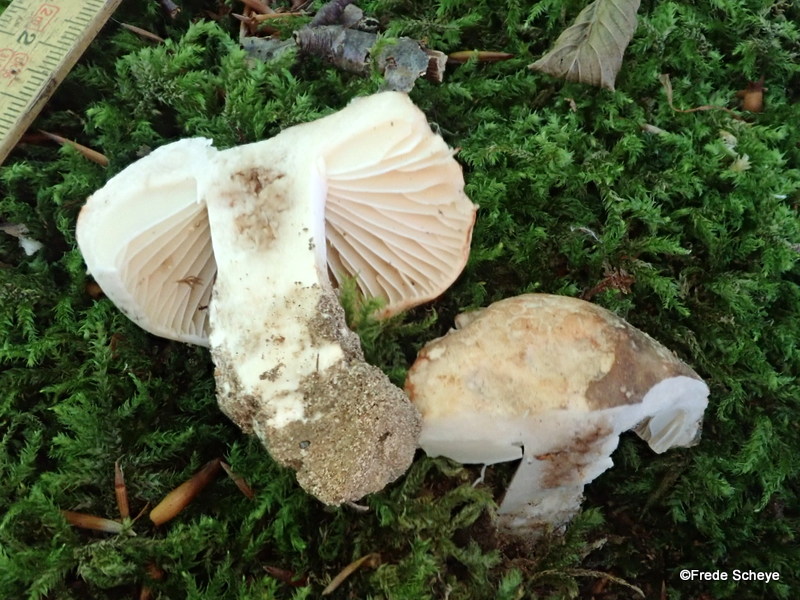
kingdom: Fungi
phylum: Basidiomycota
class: Agaricomycetes
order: Russulales
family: Russulaceae
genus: Russula
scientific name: Russula adusta
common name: sværtende skørhat
